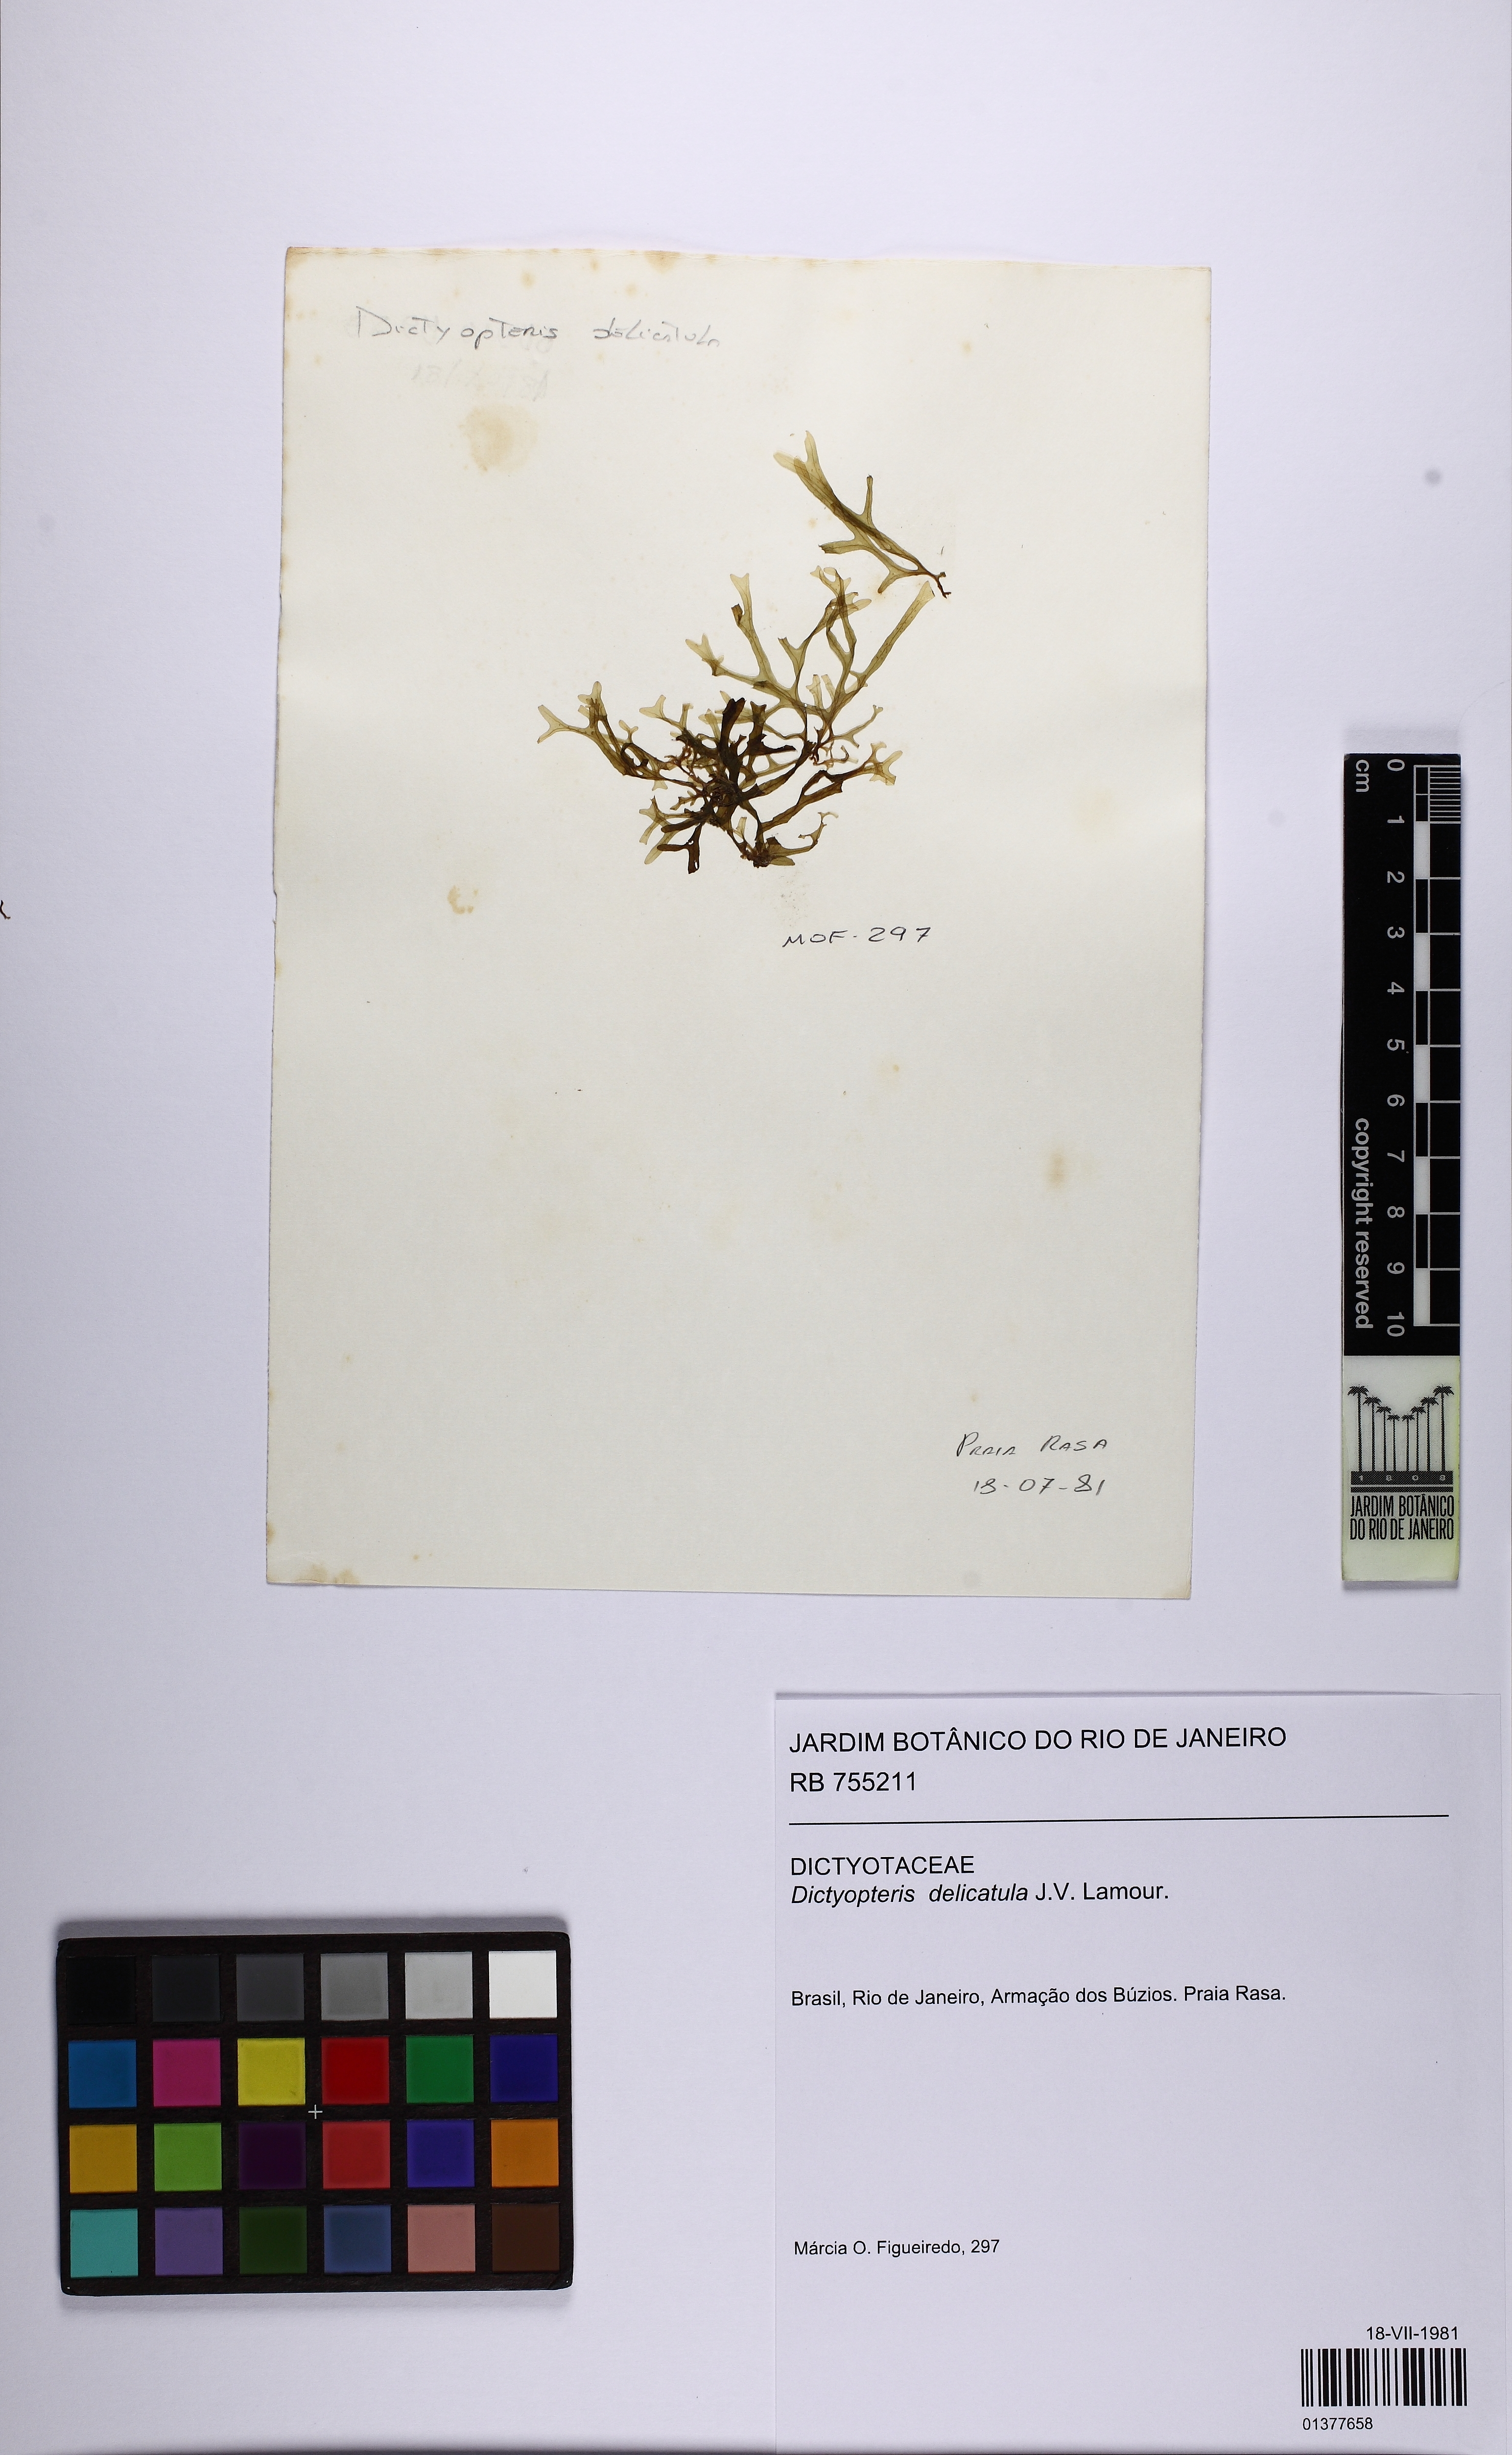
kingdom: Chromista
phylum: Ochrophyta
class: Phaeophyceae
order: Dictyotales
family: Dictyotaceae
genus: Dictyopteris
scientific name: Dictyopteris delicatula
